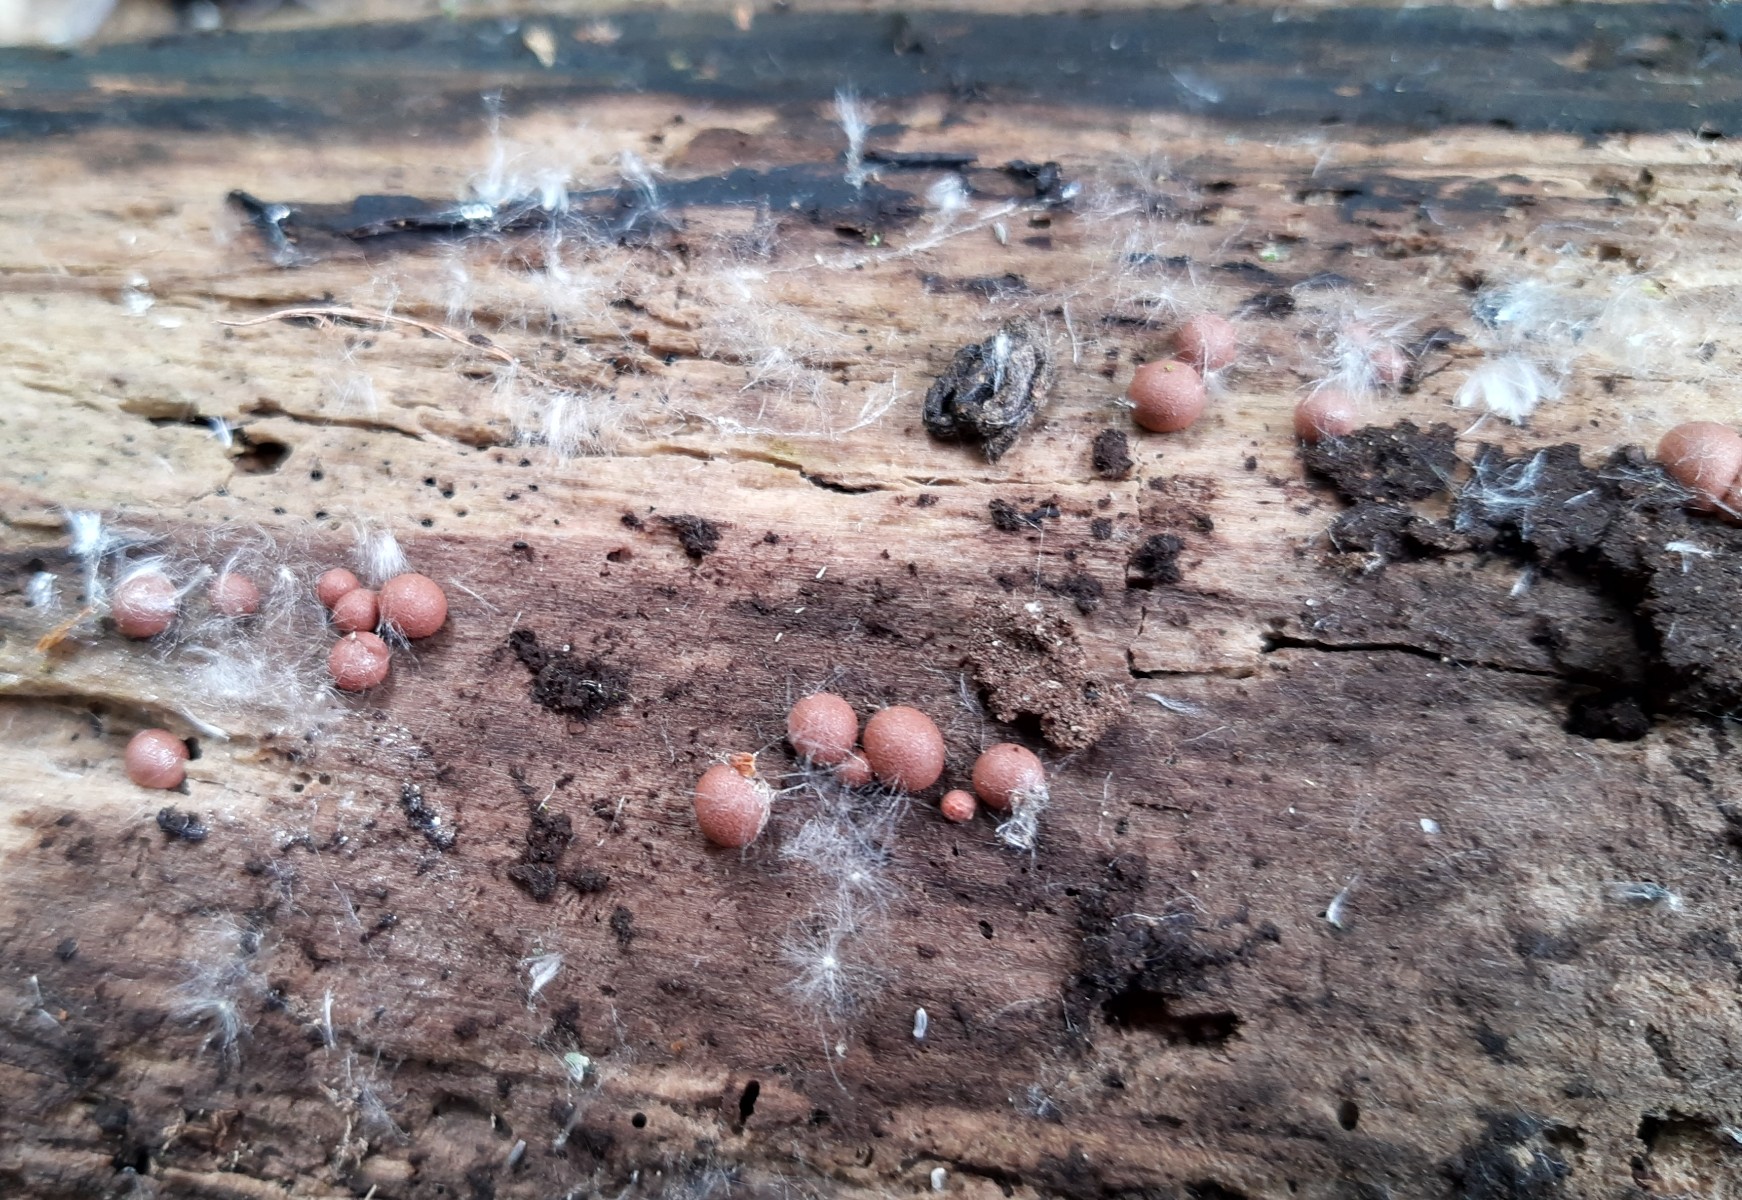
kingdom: Protozoa
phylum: Mycetozoa
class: Myxomycetes
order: Cribrariales
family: Tubiferaceae
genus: Lycogala
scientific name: Lycogala epidendrum
